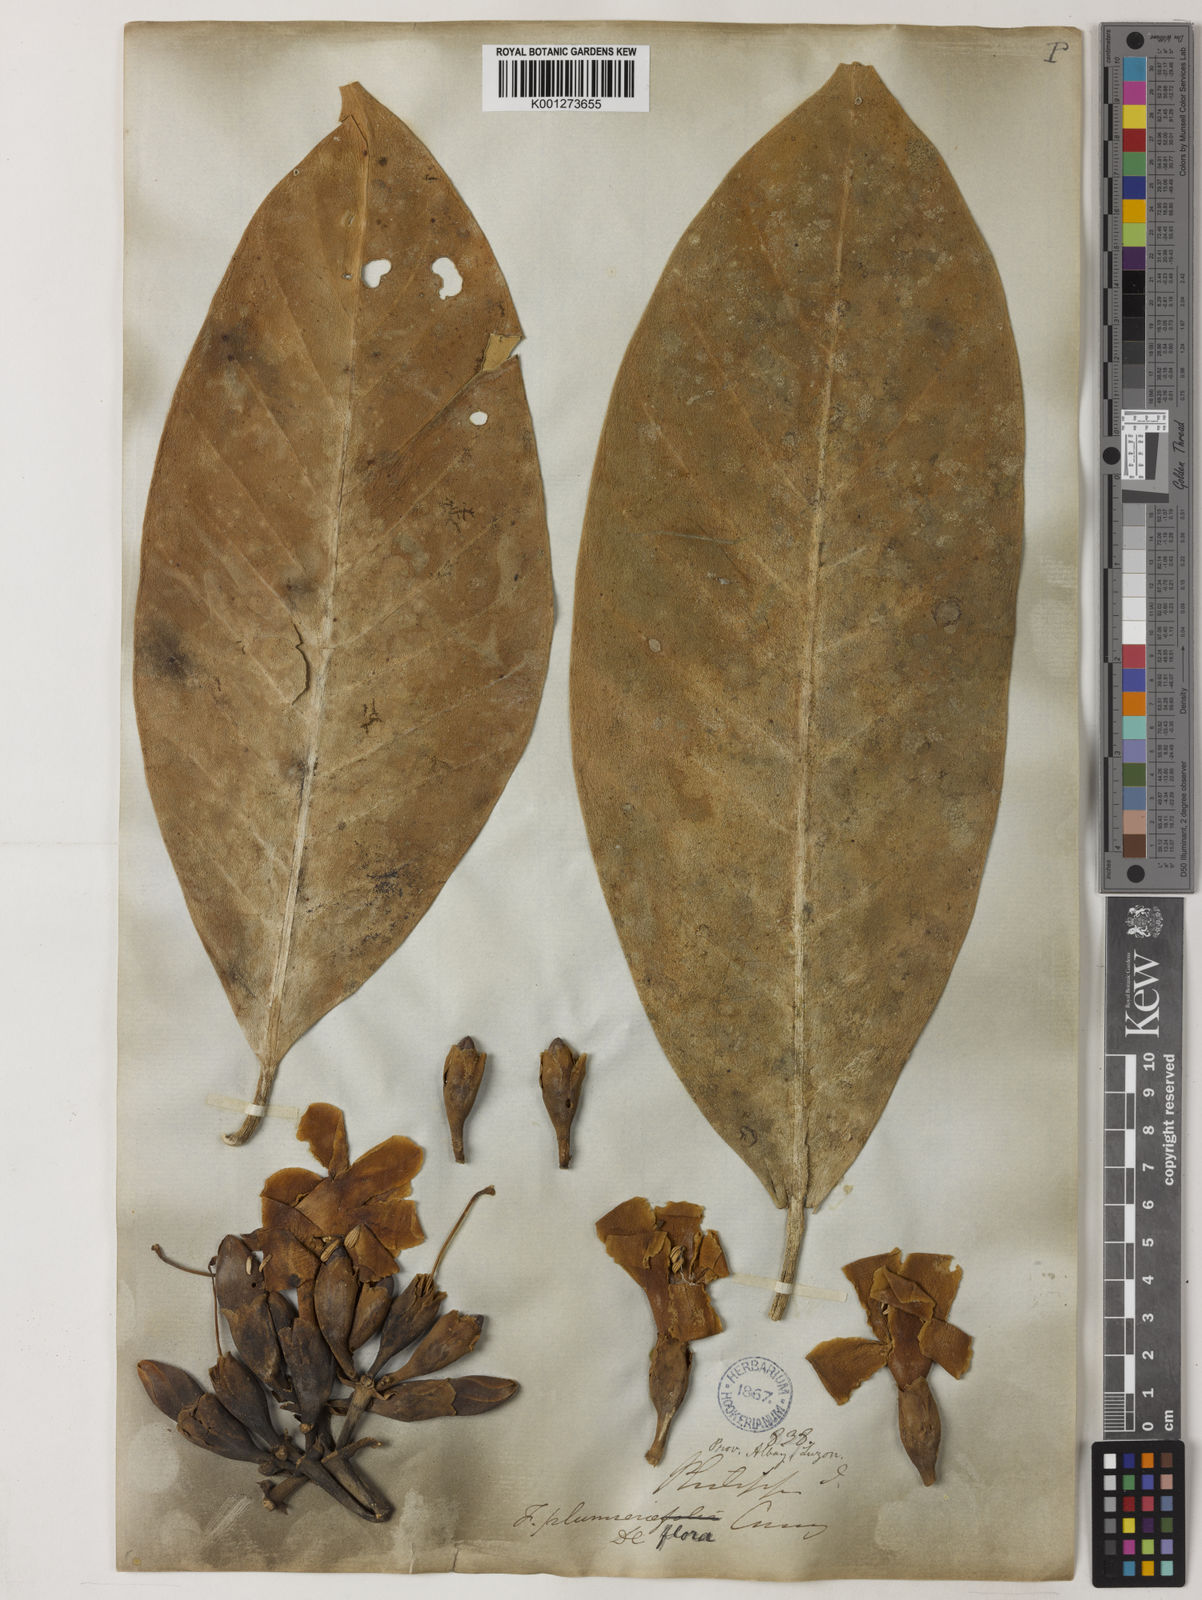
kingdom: Plantae
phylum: Tracheophyta
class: Magnoliopsida
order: Gentianales
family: Gentianaceae
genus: Fagraea
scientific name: Fagraea plumeriiflora
